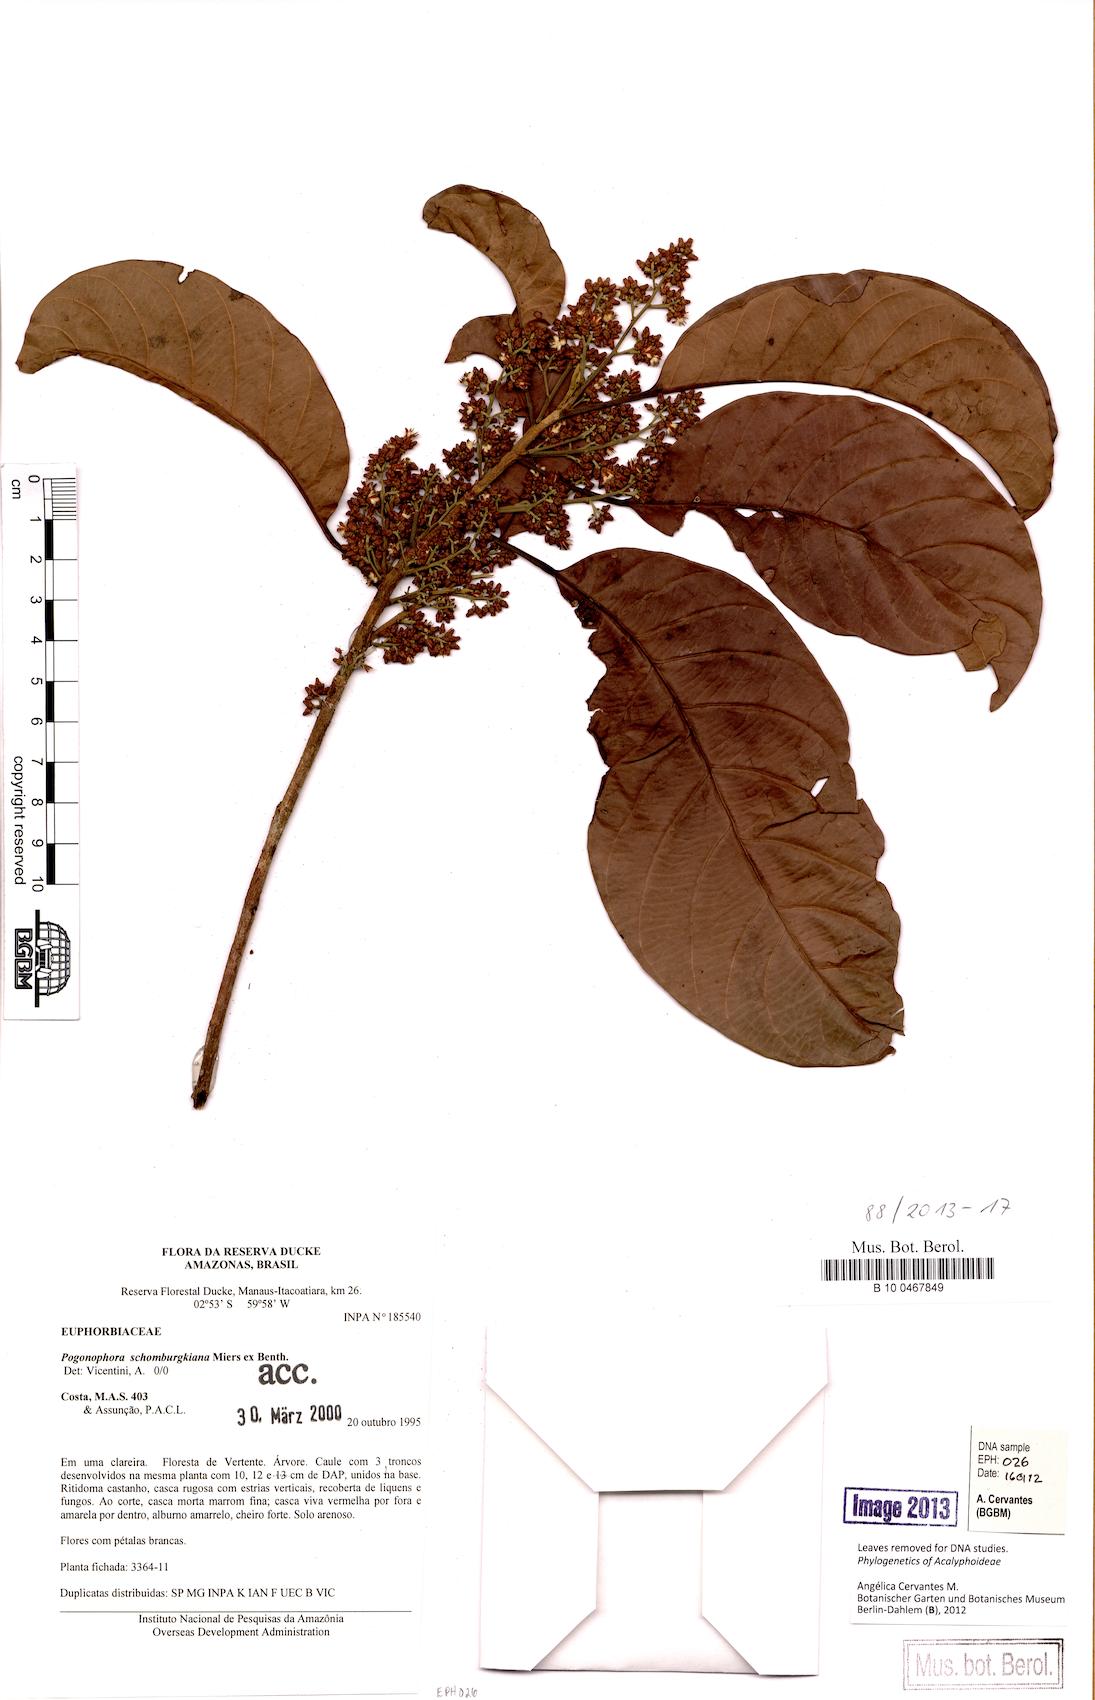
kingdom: Plantae
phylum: Tracheophyta
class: Magnoliopsida
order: Malpighiales
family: Peraceae
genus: Pogonophora
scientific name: Pogonophora schomburgkiana
